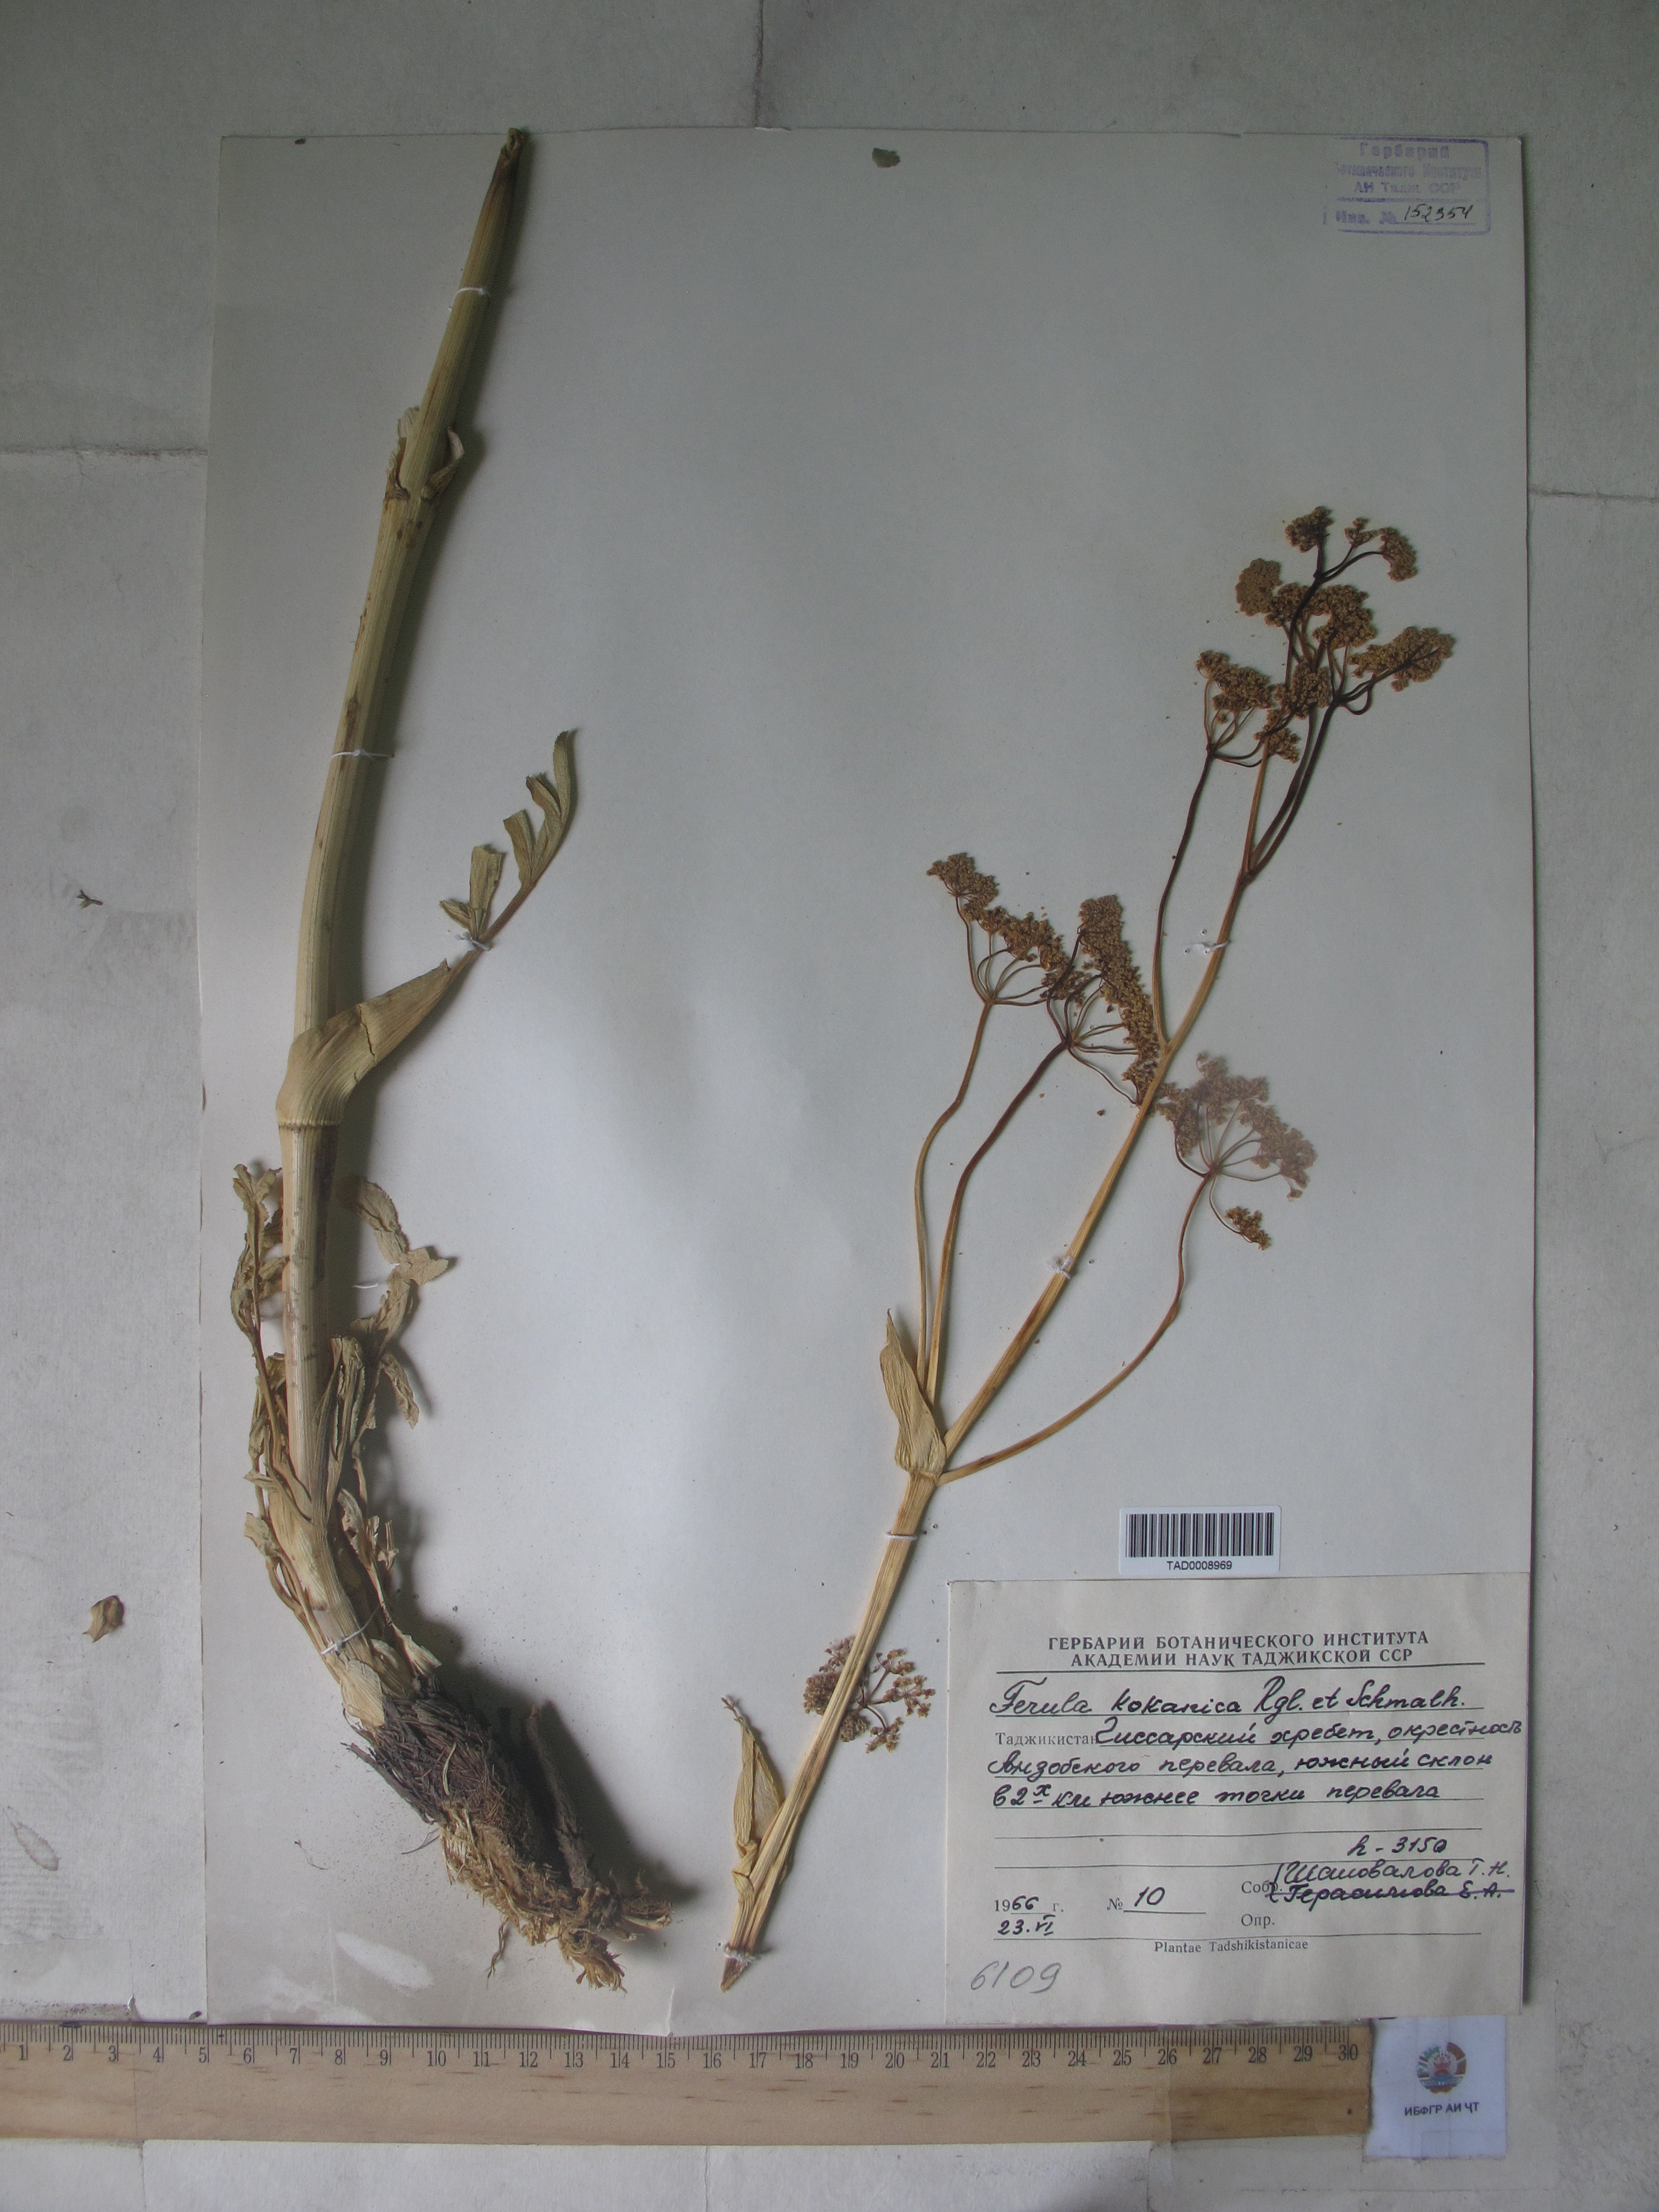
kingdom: Plantae
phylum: Tracheophyta
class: Magnoliopsida
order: Apiales
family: Apiaceae
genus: Ferula
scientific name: Ferula kokanica
